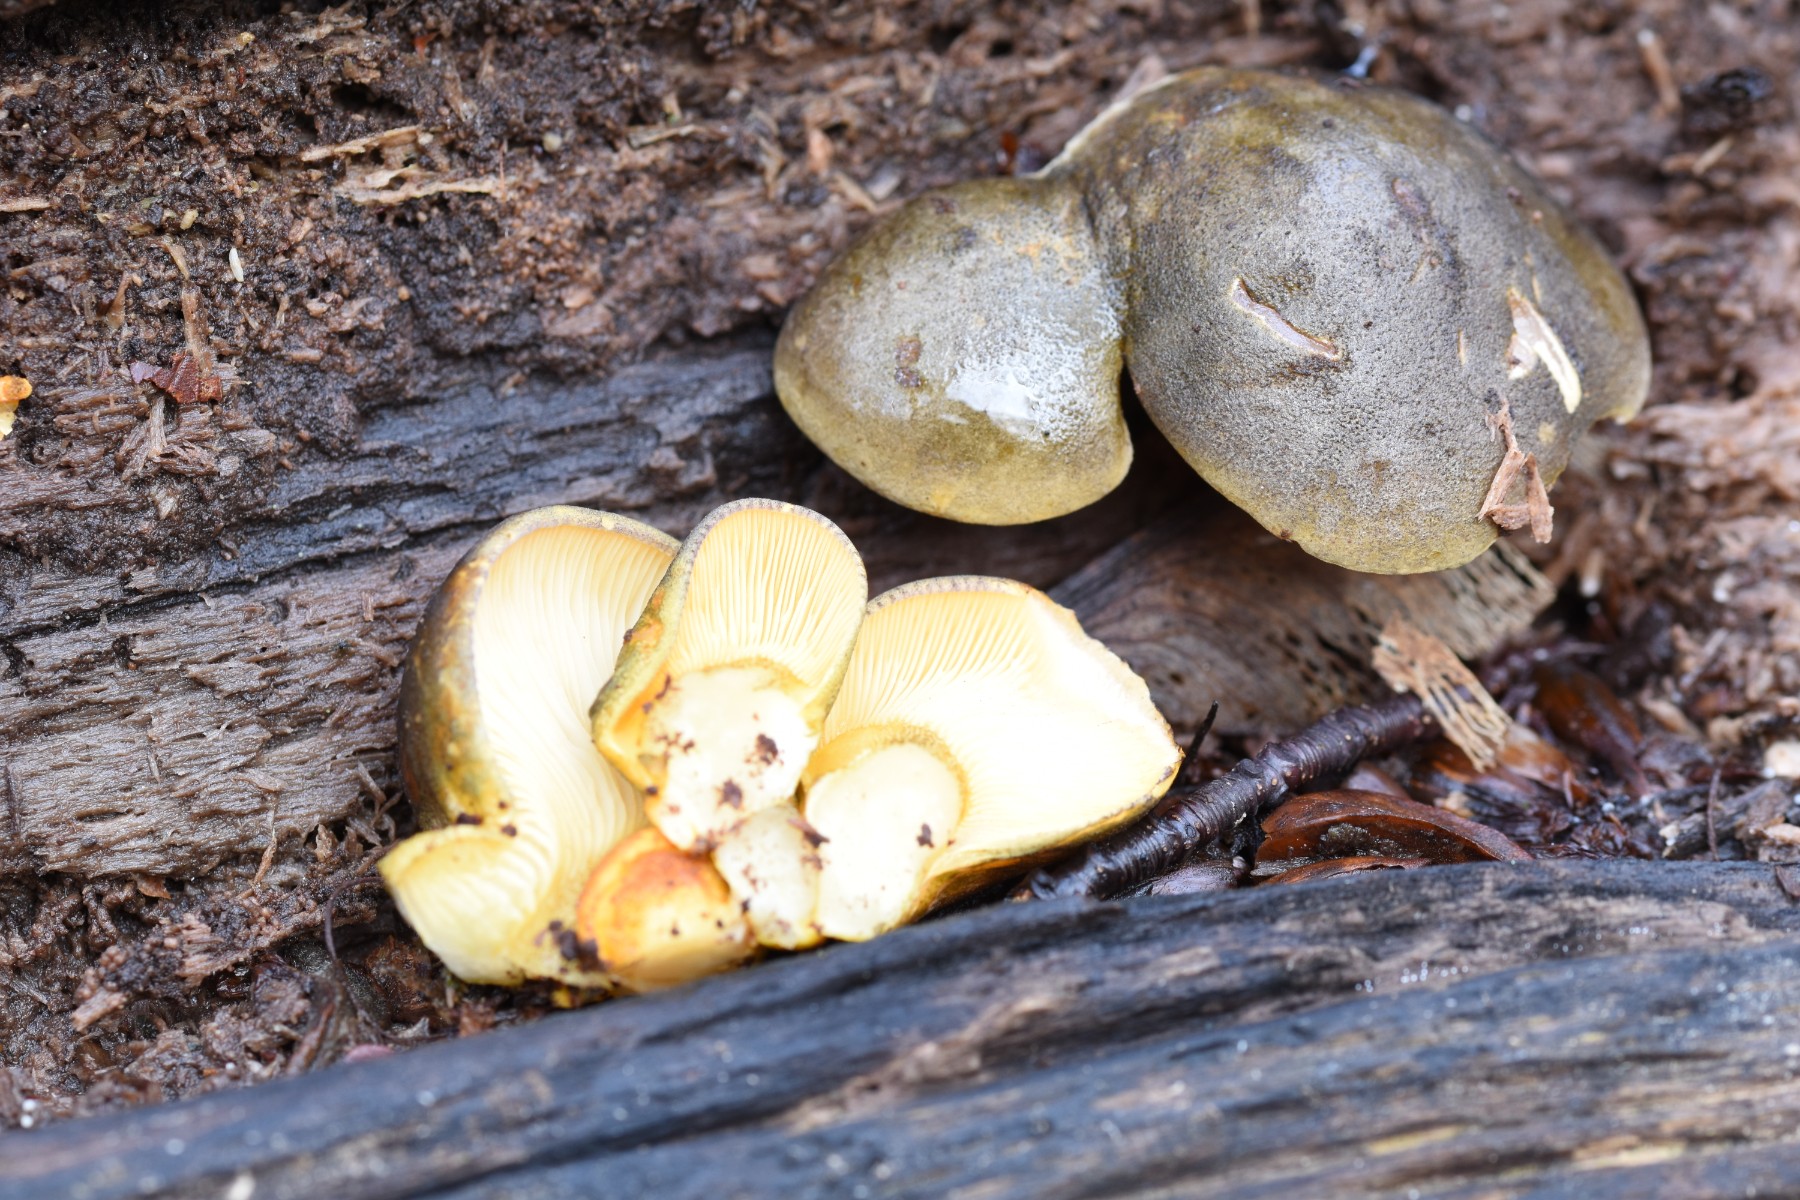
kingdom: Fungi
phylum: Basidiomycota
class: Agaricomycetes
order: Agaricales
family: Sarcomyxaceae
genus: Sarcomyxa
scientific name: Sarcomyxa serotina
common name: gummihat
